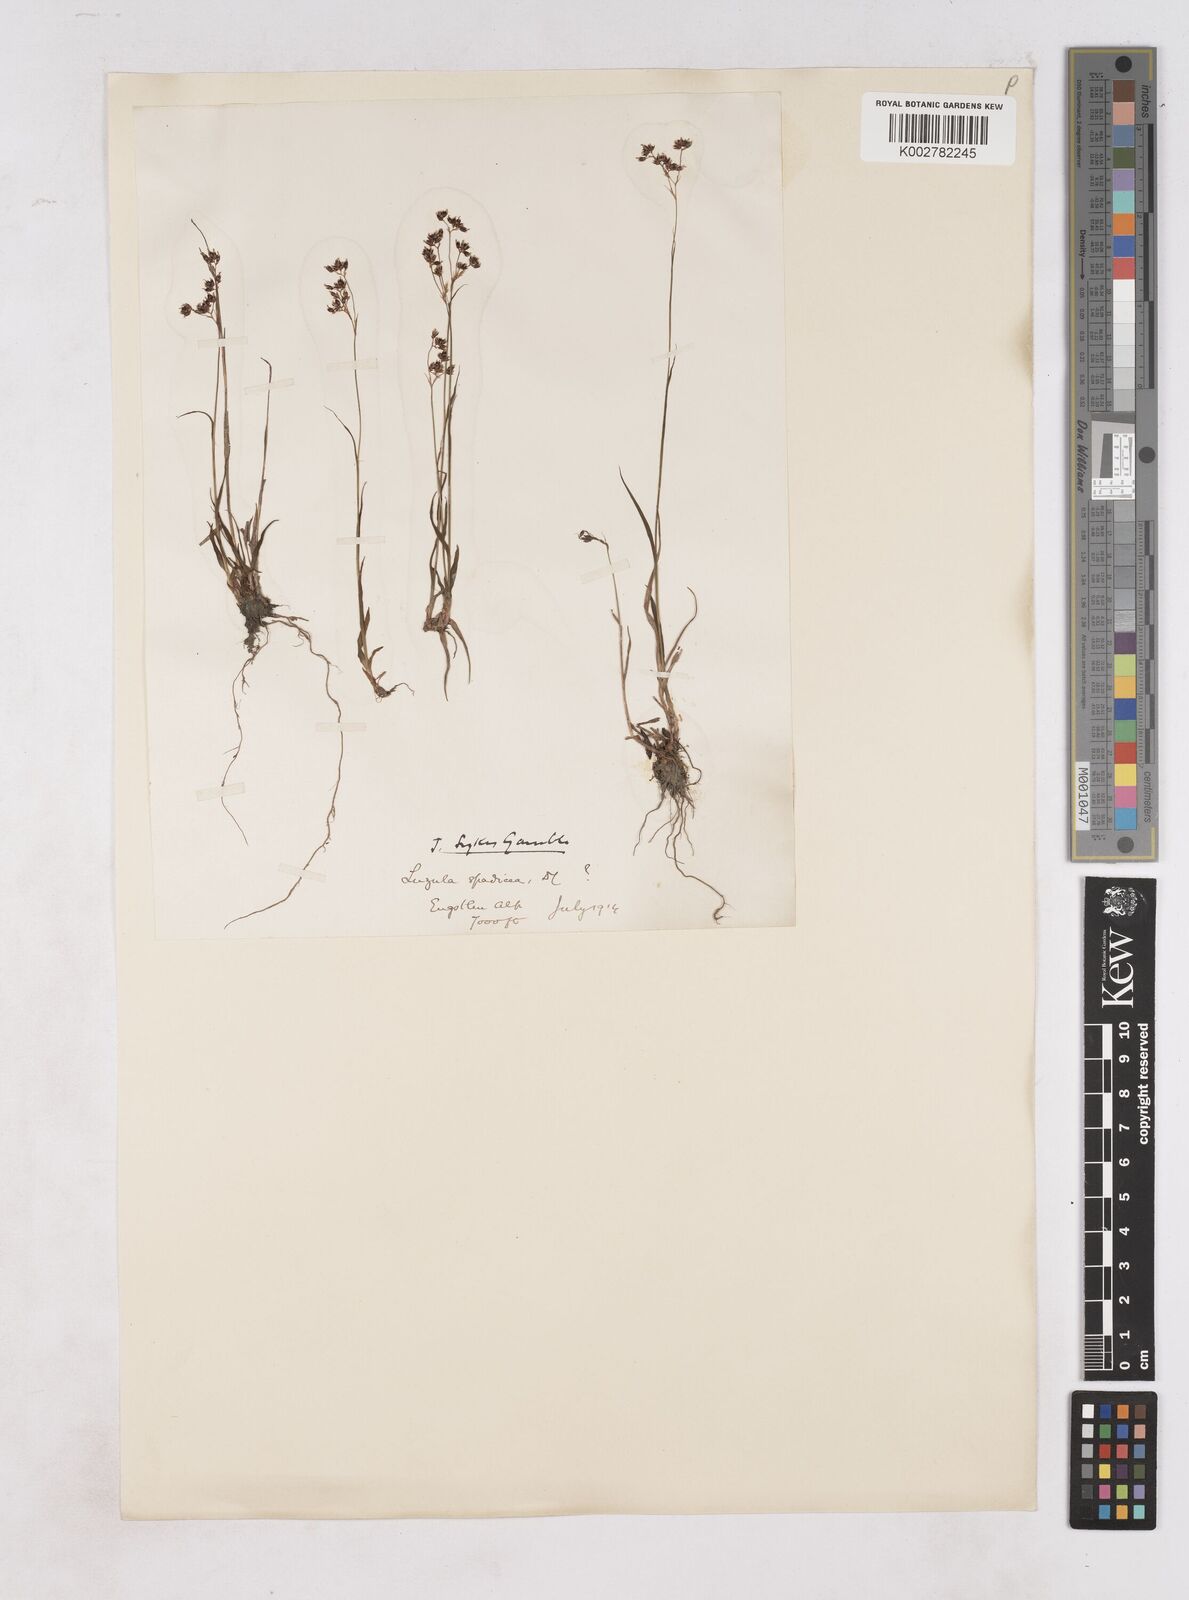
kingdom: Plantae
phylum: Tracheophyta
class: Liliopsida
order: Poales
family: Juncaceae
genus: Luzula
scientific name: Luzula alpinopilosa
